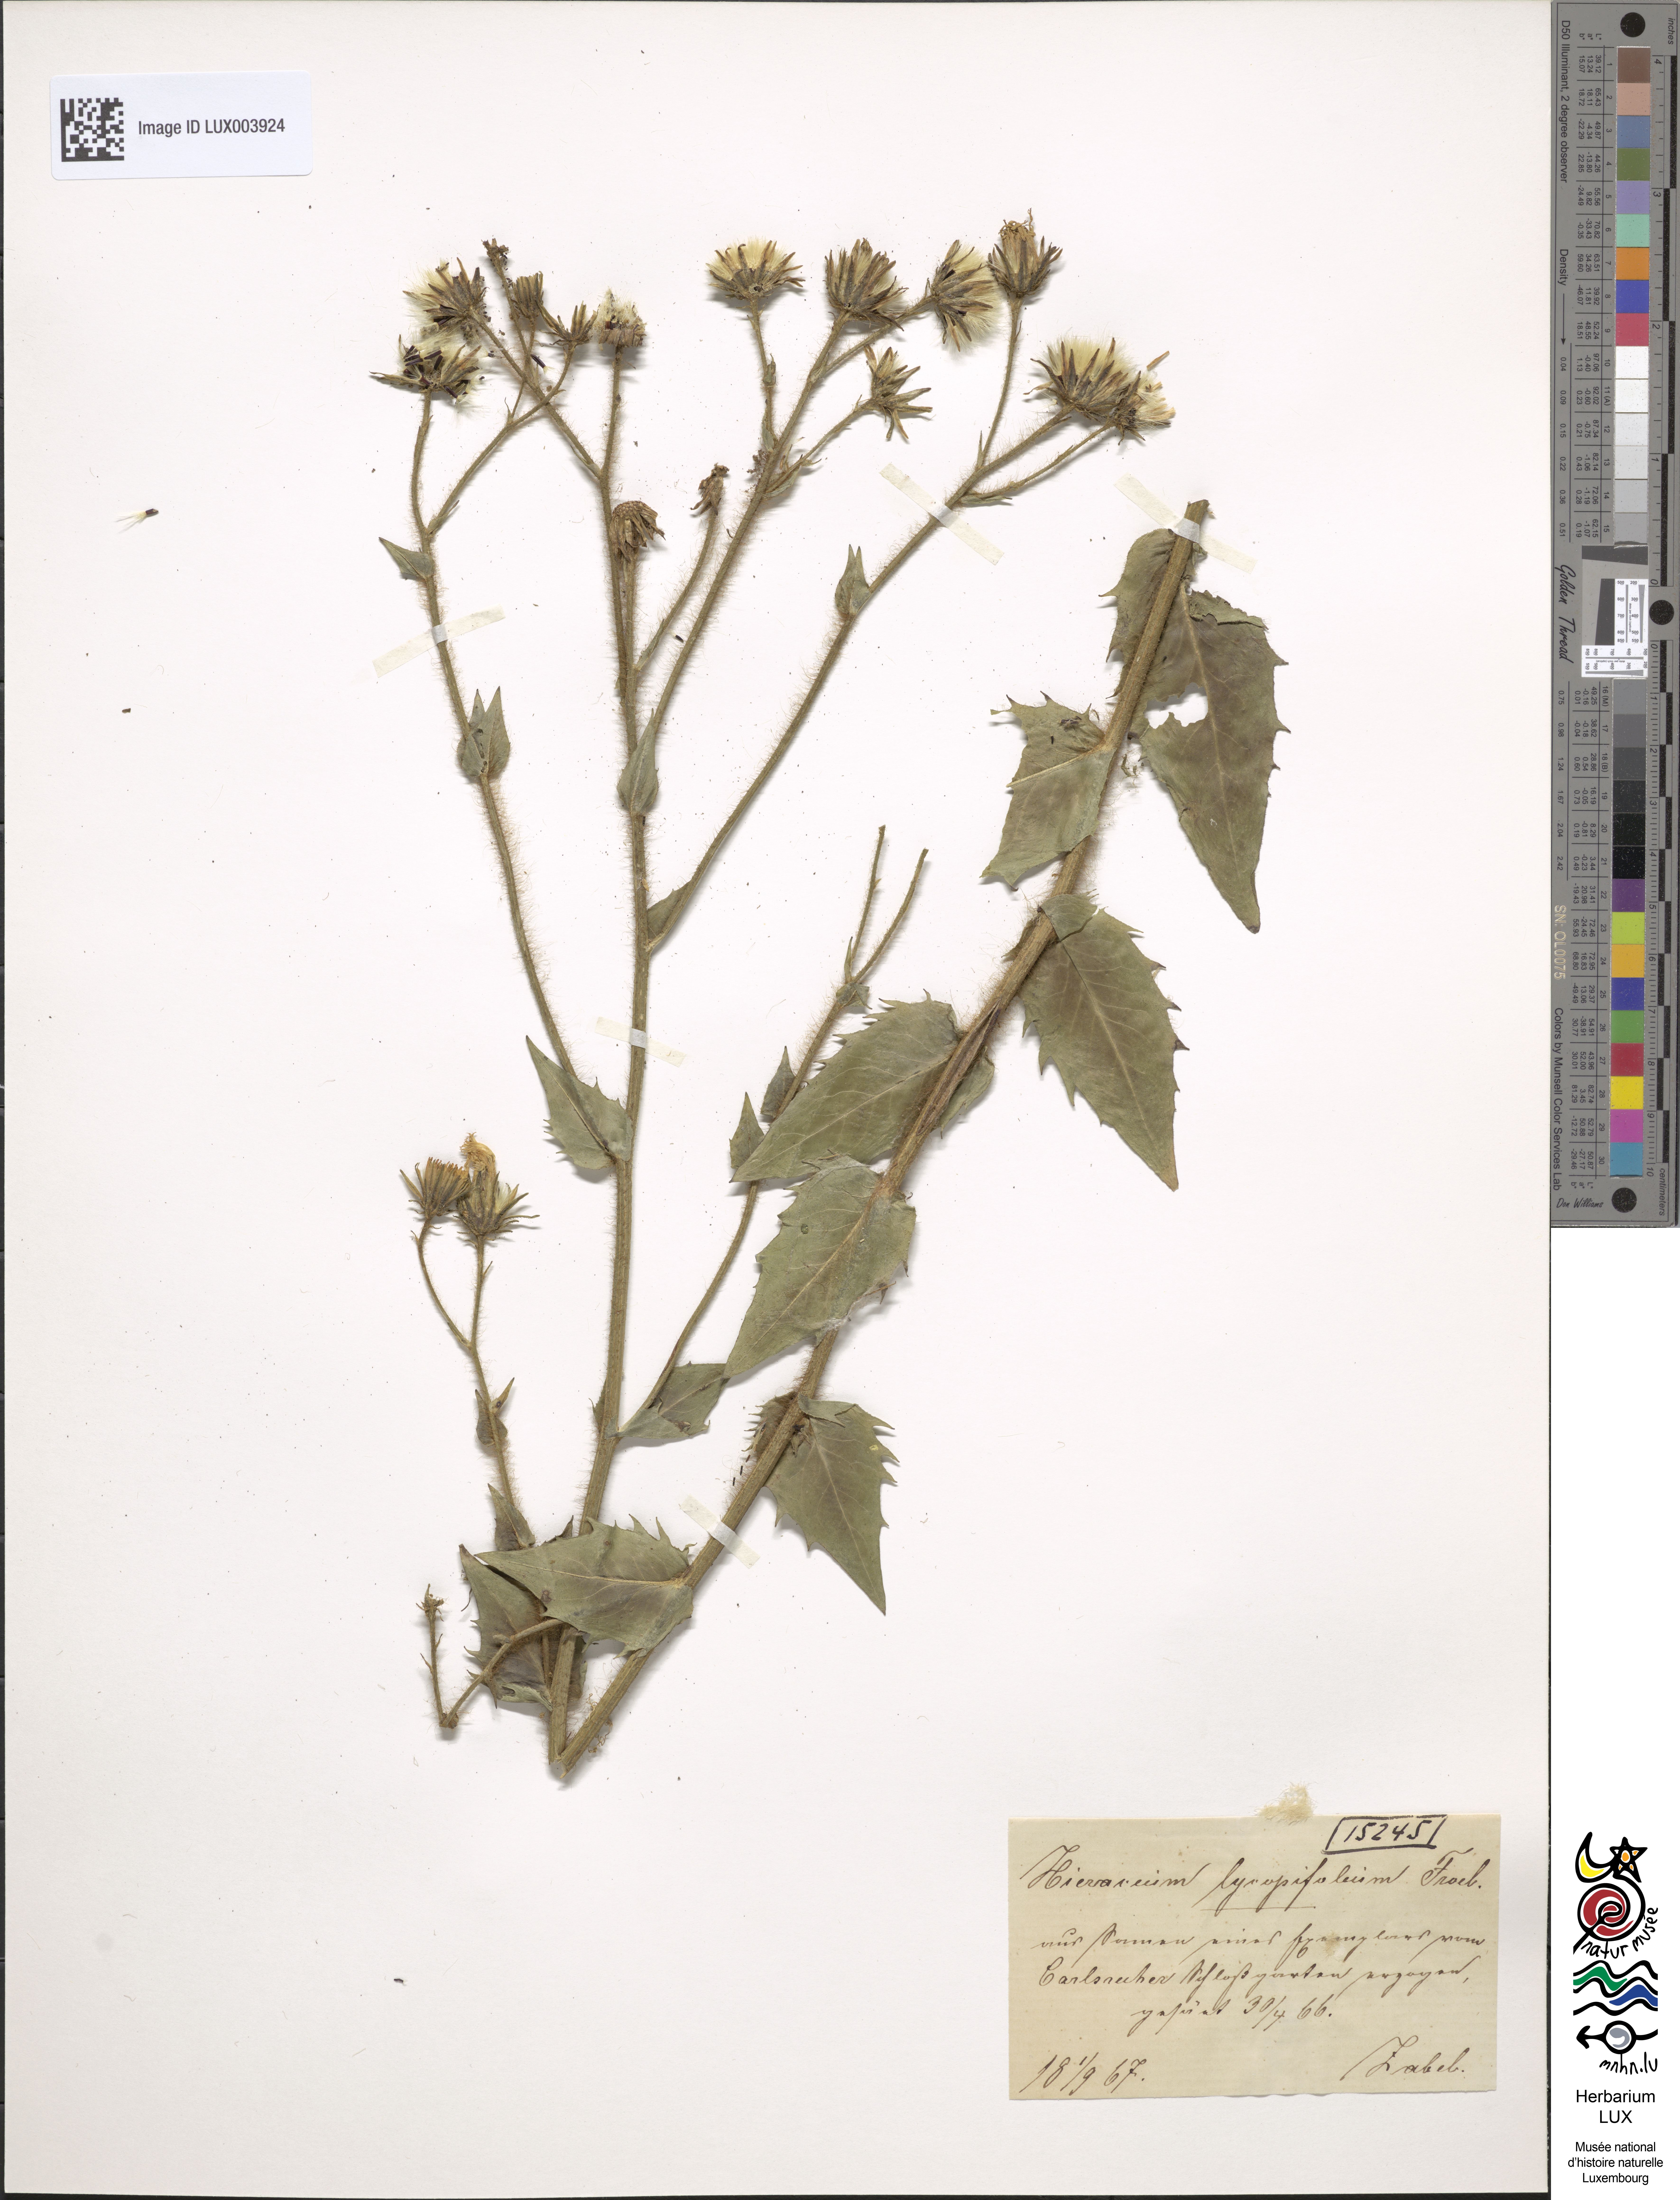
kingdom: Plantae
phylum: Tracheophyta
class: Magnoliopsida
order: Asterales
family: Asteraceae
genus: Hieracium
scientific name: Hieracium lycopsifolium
